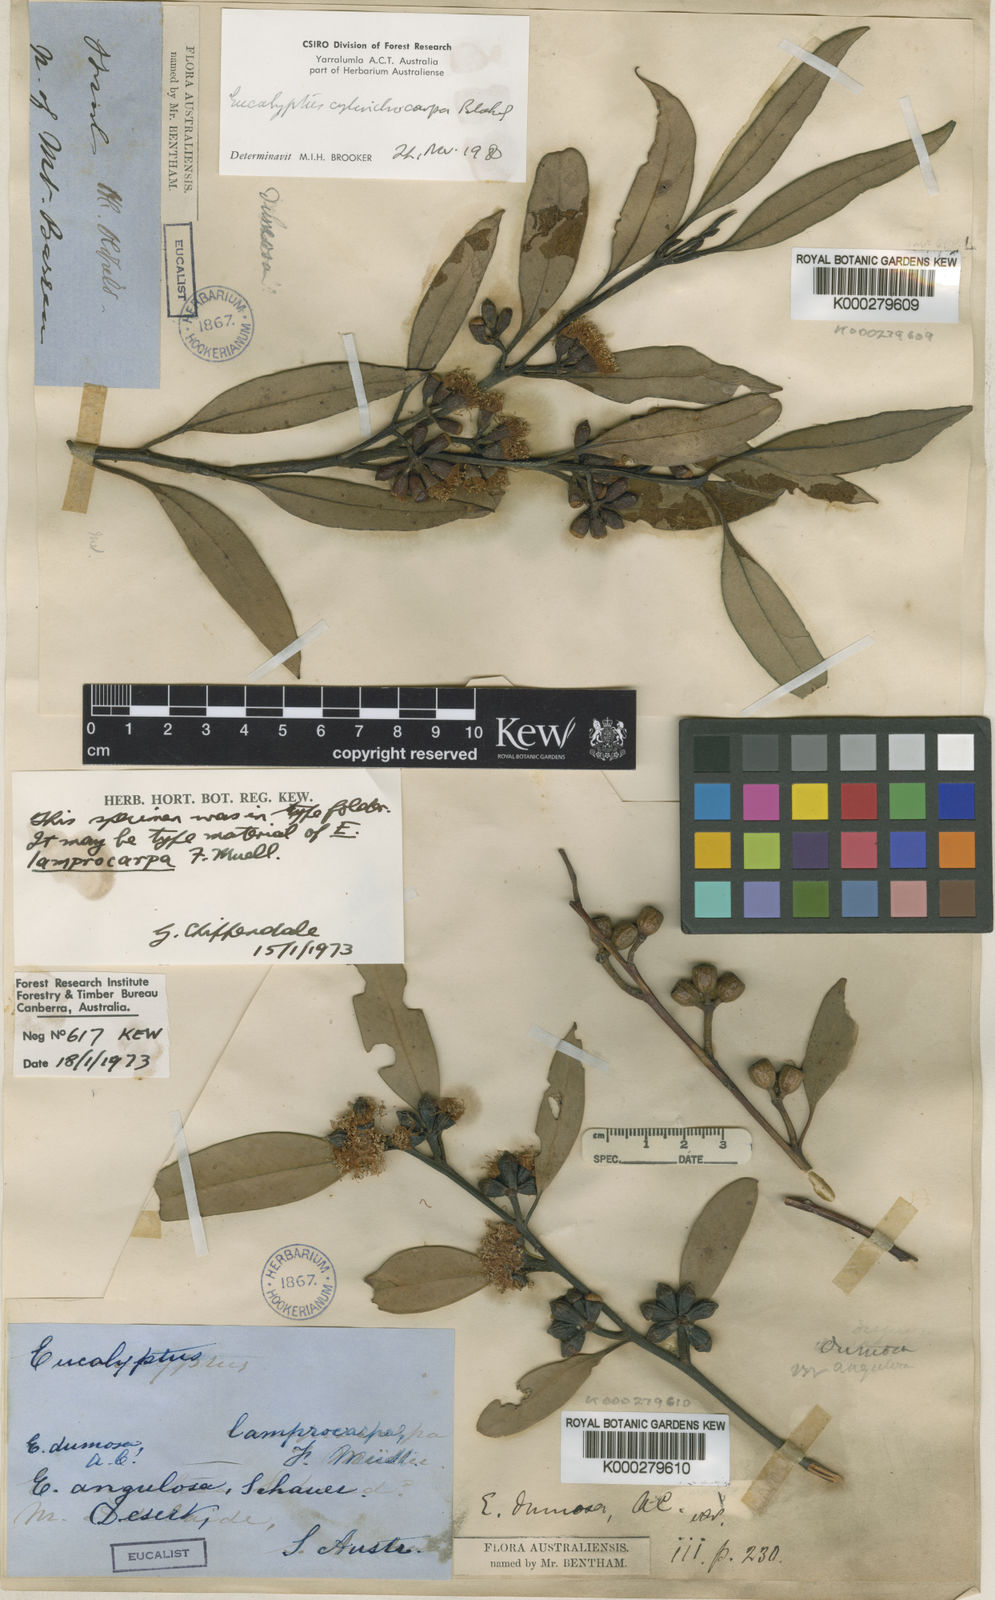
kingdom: Plantae
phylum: Tracheophyta
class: Magnoliopsida
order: Myrtales
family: Myrtaceae
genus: Eucalyptus
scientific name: Eucalyptus dumosa
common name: Dumosa mallee
